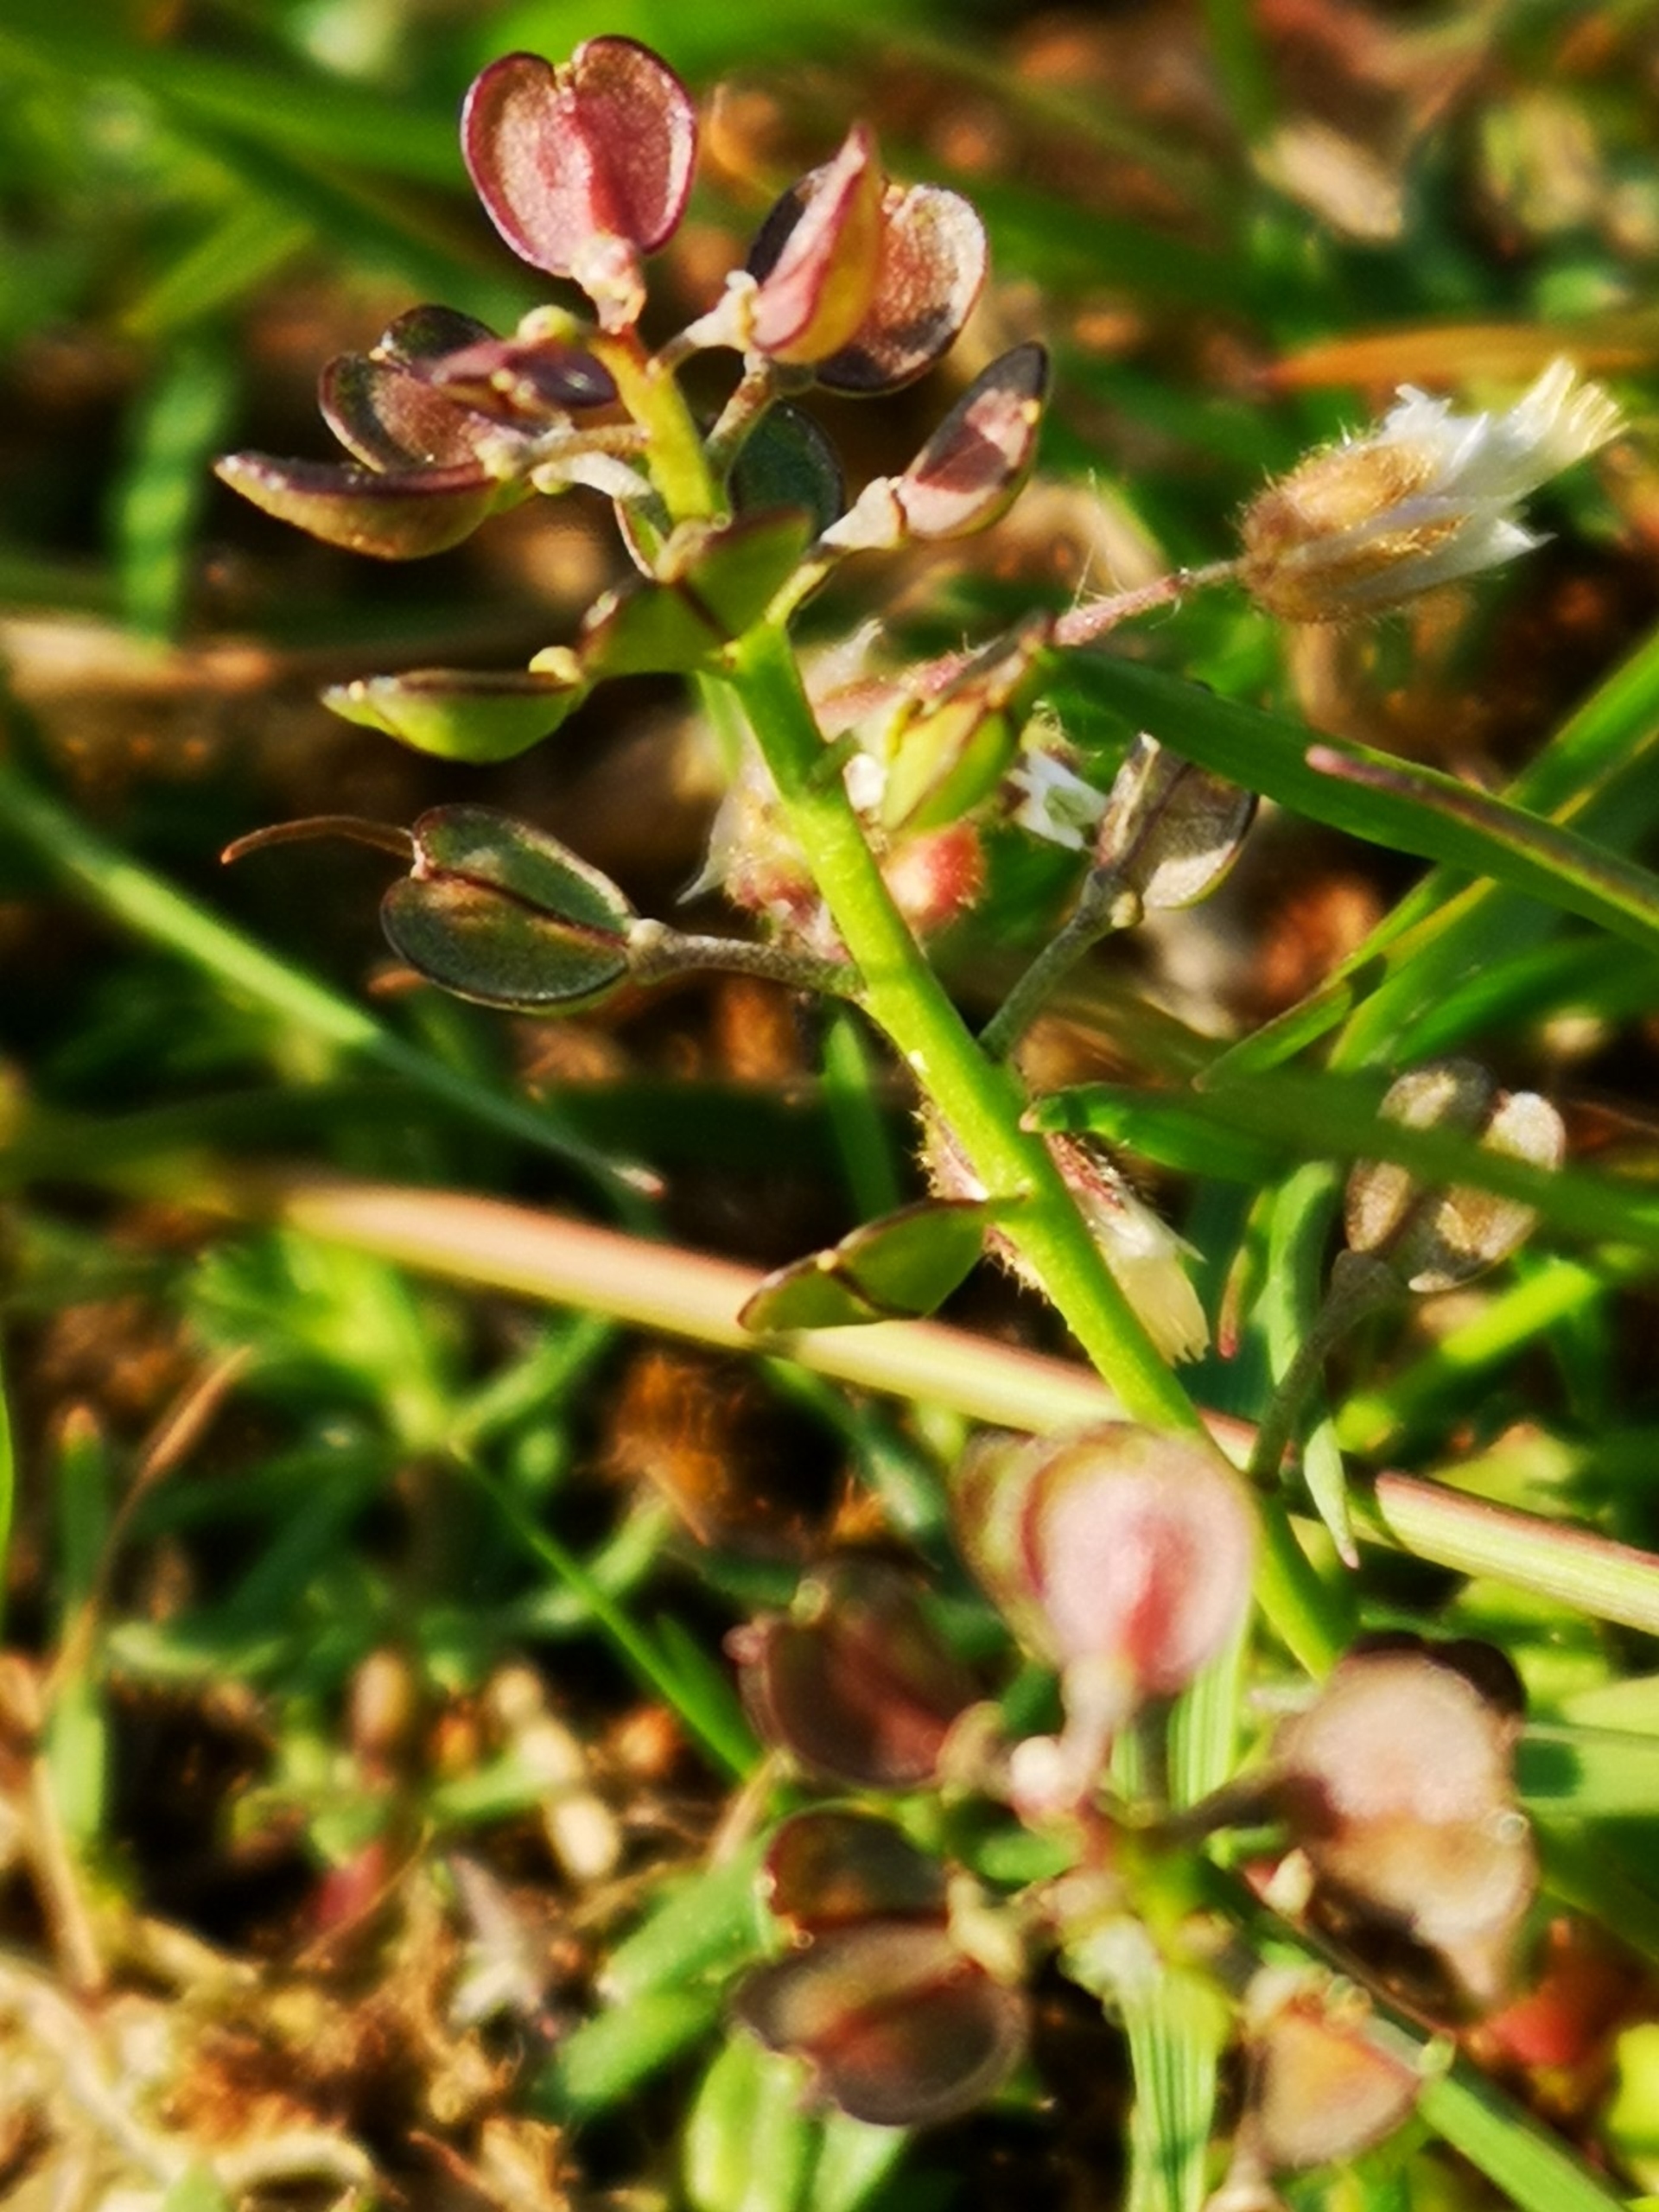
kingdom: Plantae
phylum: Tracheophyta
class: Magnoliopsida
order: Brassicales
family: Brassicaceae
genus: Teesdalia
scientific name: Teesdalia nudicaulis
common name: Flipkrave
